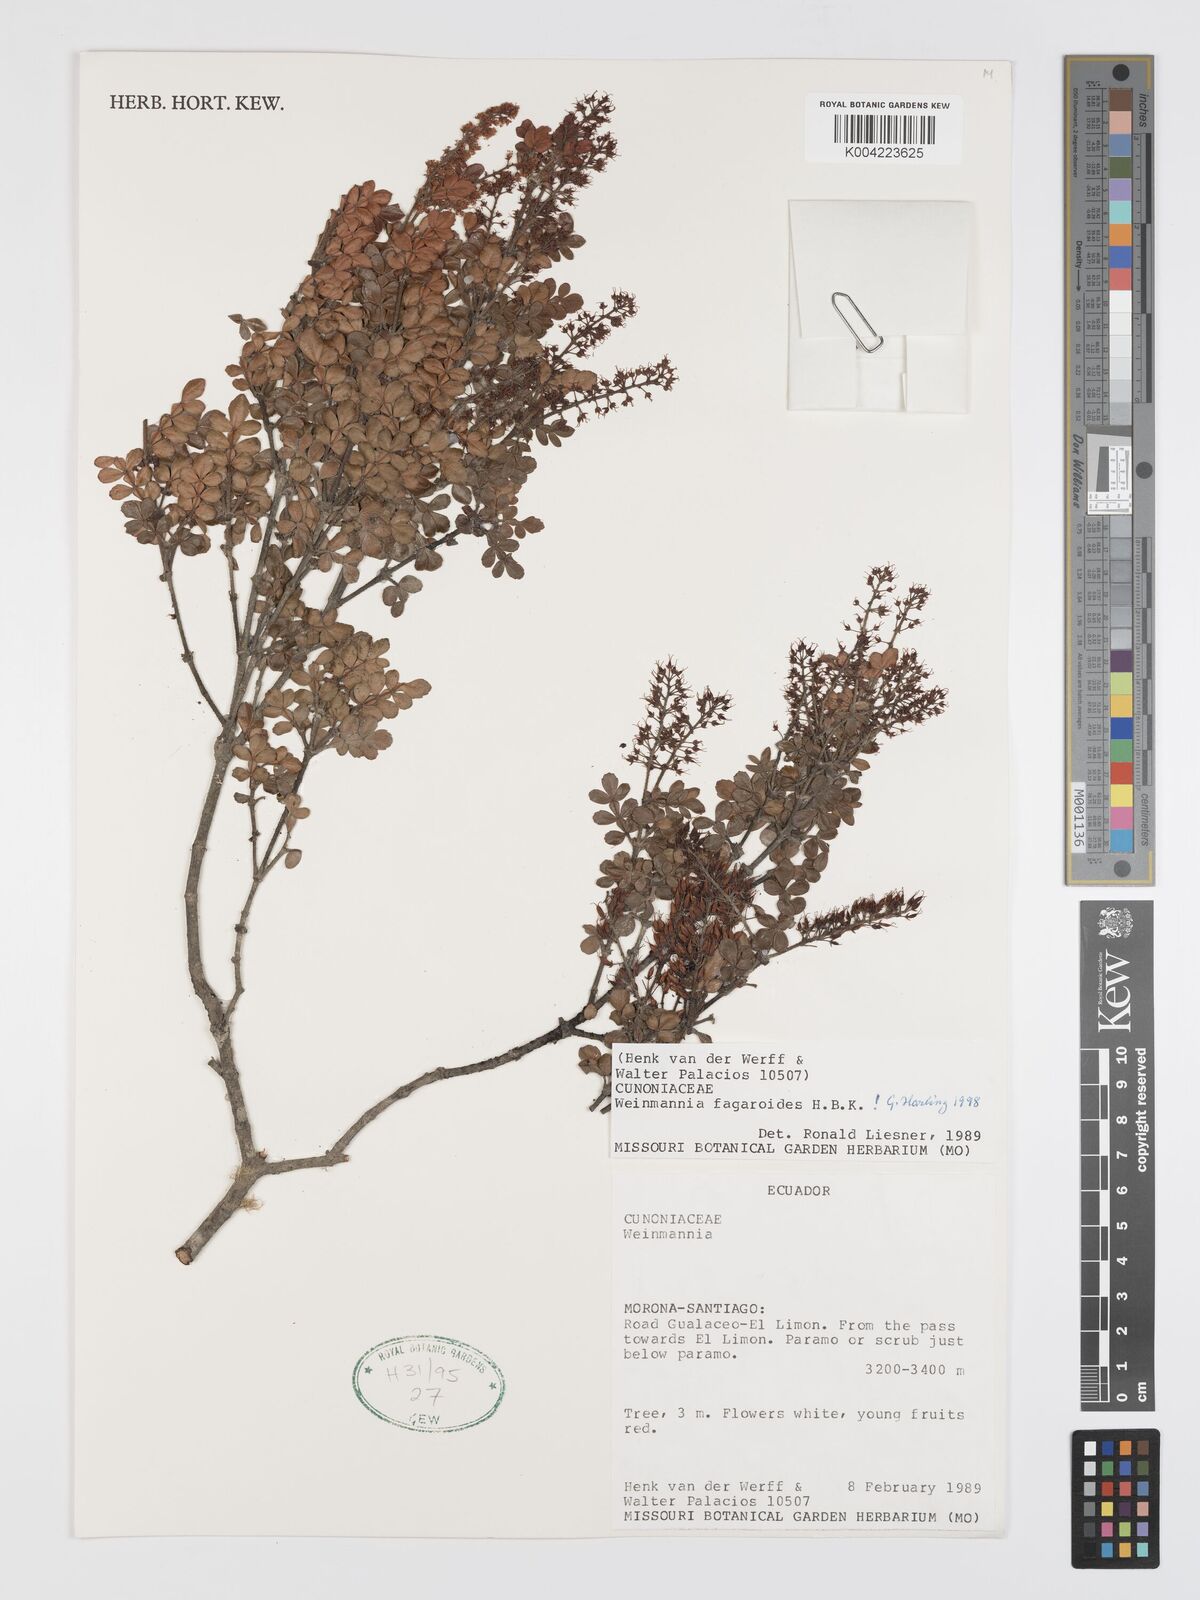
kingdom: Plantae
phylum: Tracheophyta
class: Magnoliopsida
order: Oxalidales
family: Cunoniaceae
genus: Weinmannia
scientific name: Weinmannia fagaroides
